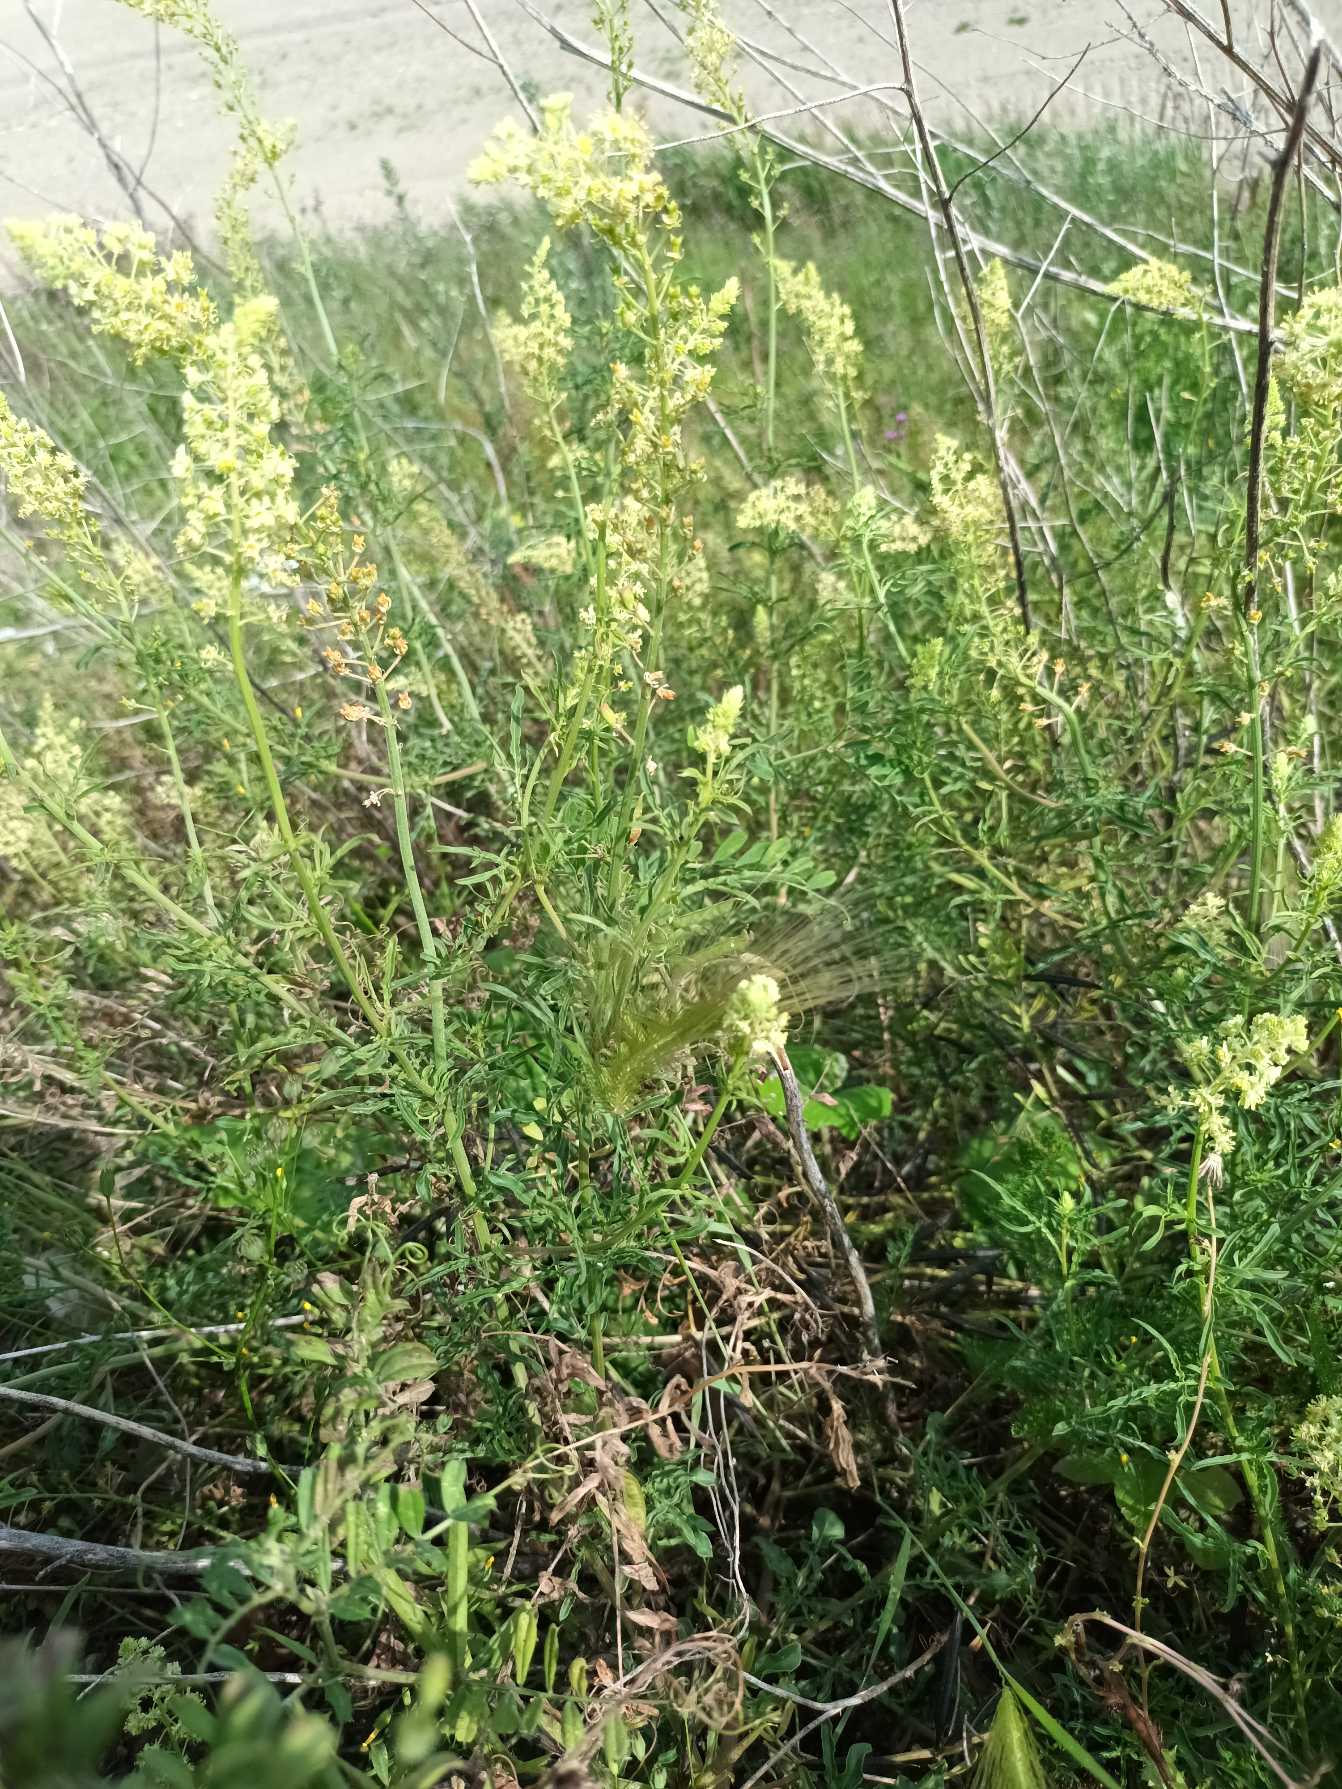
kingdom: Plantae
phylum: Tracheophyta
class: Magnoliopsida
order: Brassicales
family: Resedaceae
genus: Reseda
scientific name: Reseda lutea
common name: Gul reseda
